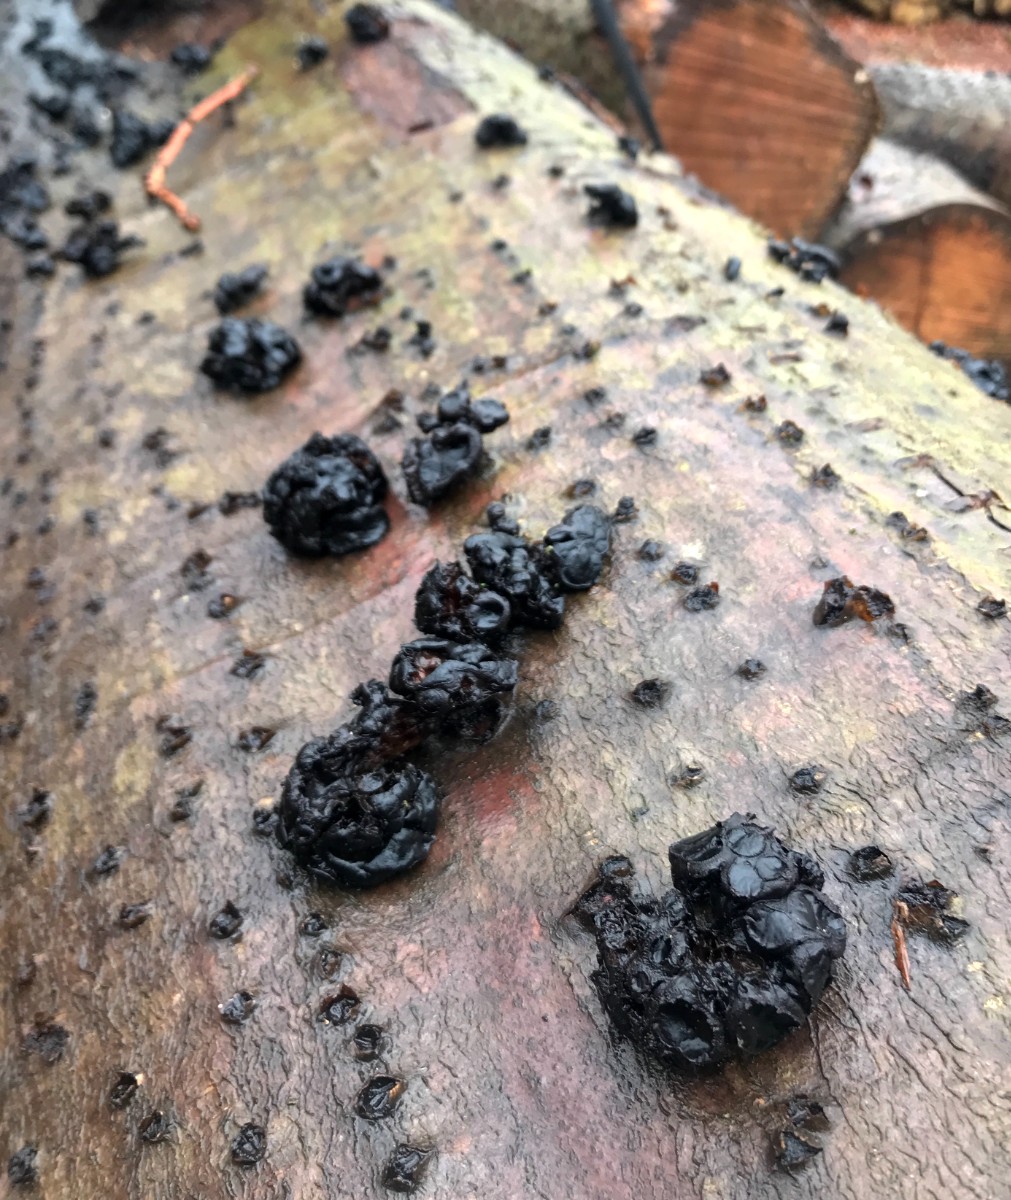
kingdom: Fungi
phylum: Basidiomycota
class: Agaricomycetes
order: Auriculariales
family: Auriculariaceae
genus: Exidia
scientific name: Exidia glandulosa
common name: ege-bævretop
